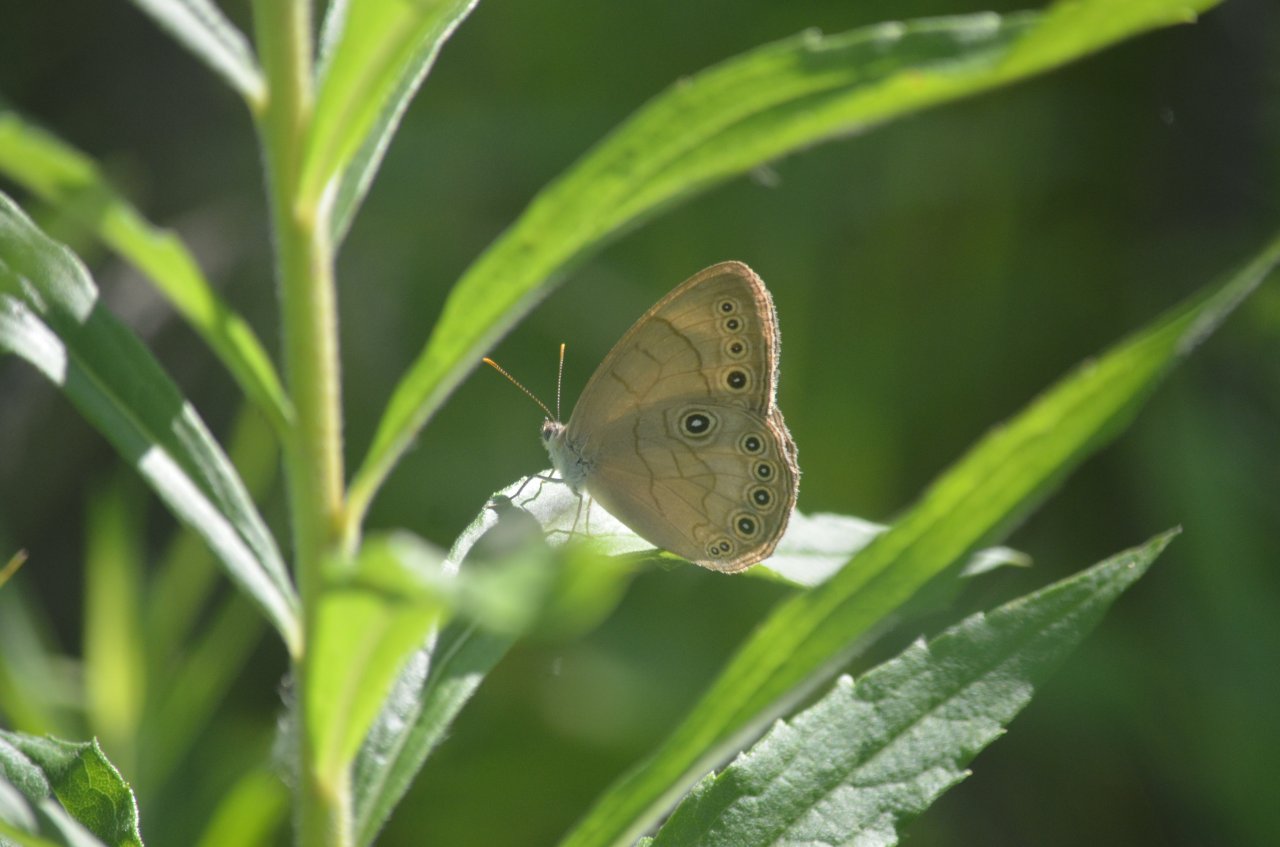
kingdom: Animalia
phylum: Arthropoda
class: Insecta
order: Lepidoptera
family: Nymphalidae
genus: Lethe
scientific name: Lethe
